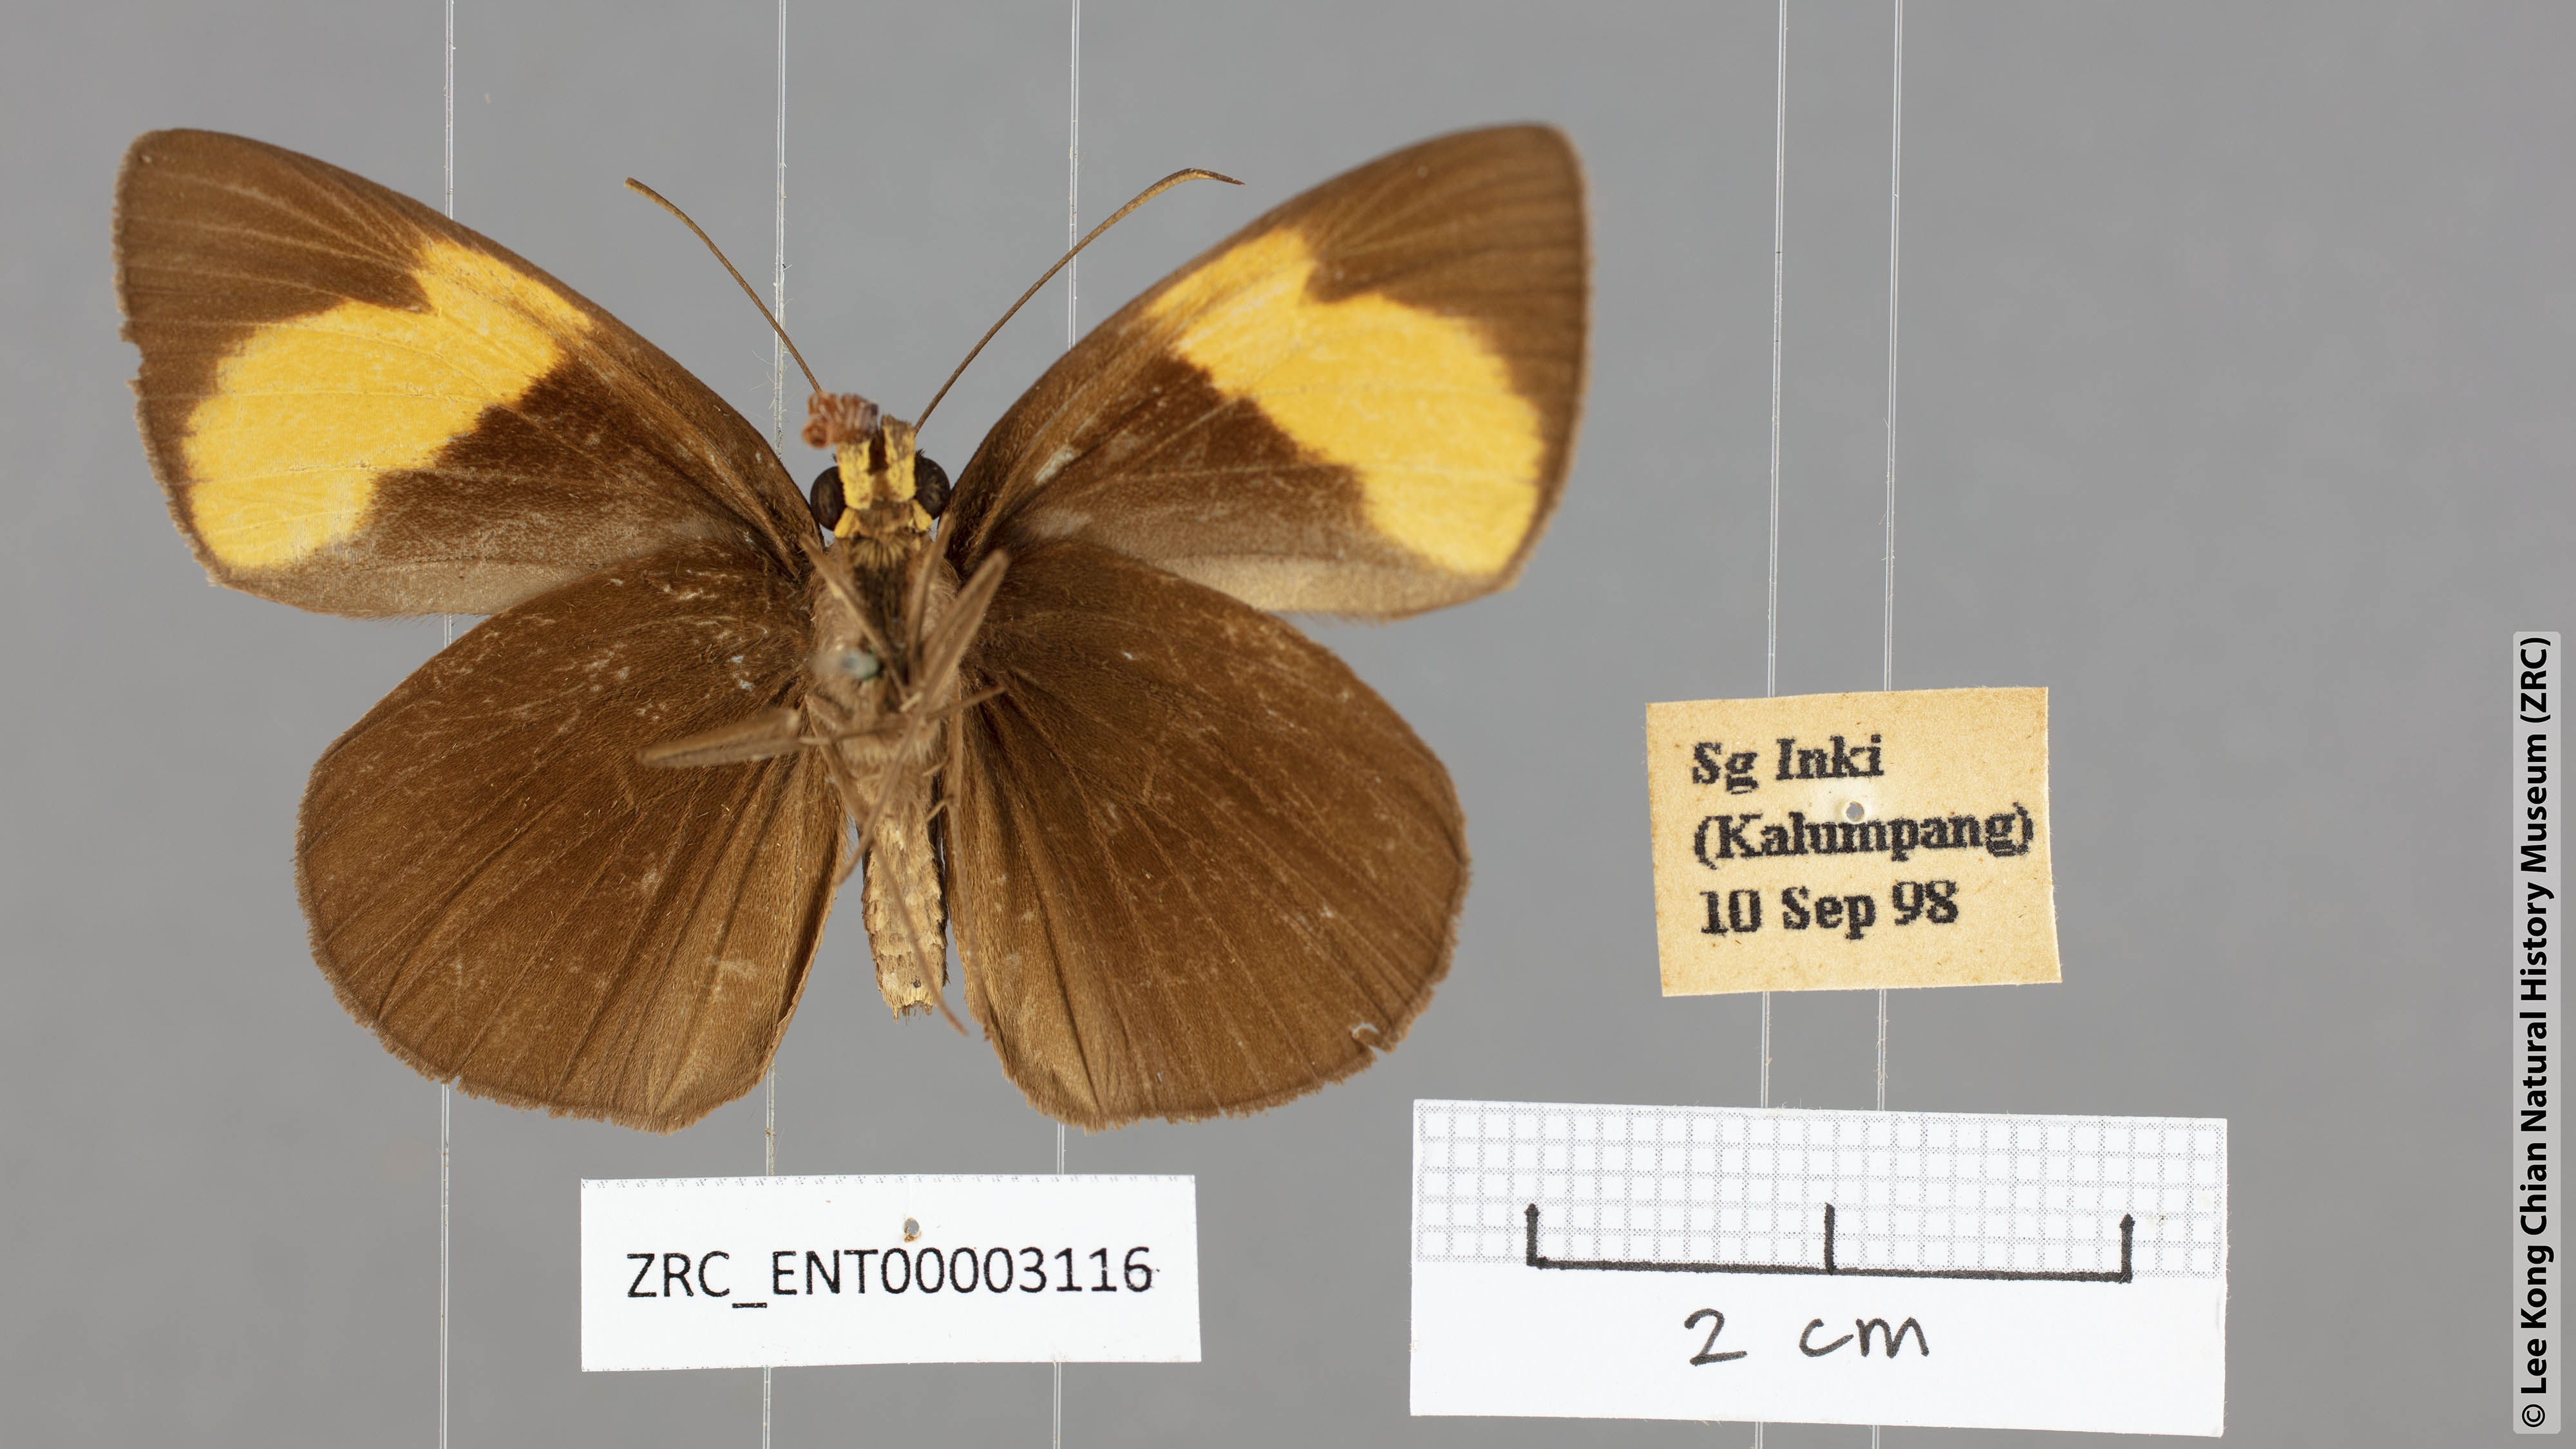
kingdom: Animalia
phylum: Arthropoda
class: Insecta
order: Lepidoptera
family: Hesperiidae
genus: Ancistroides
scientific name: Ancistroides armatus
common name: Red demon
